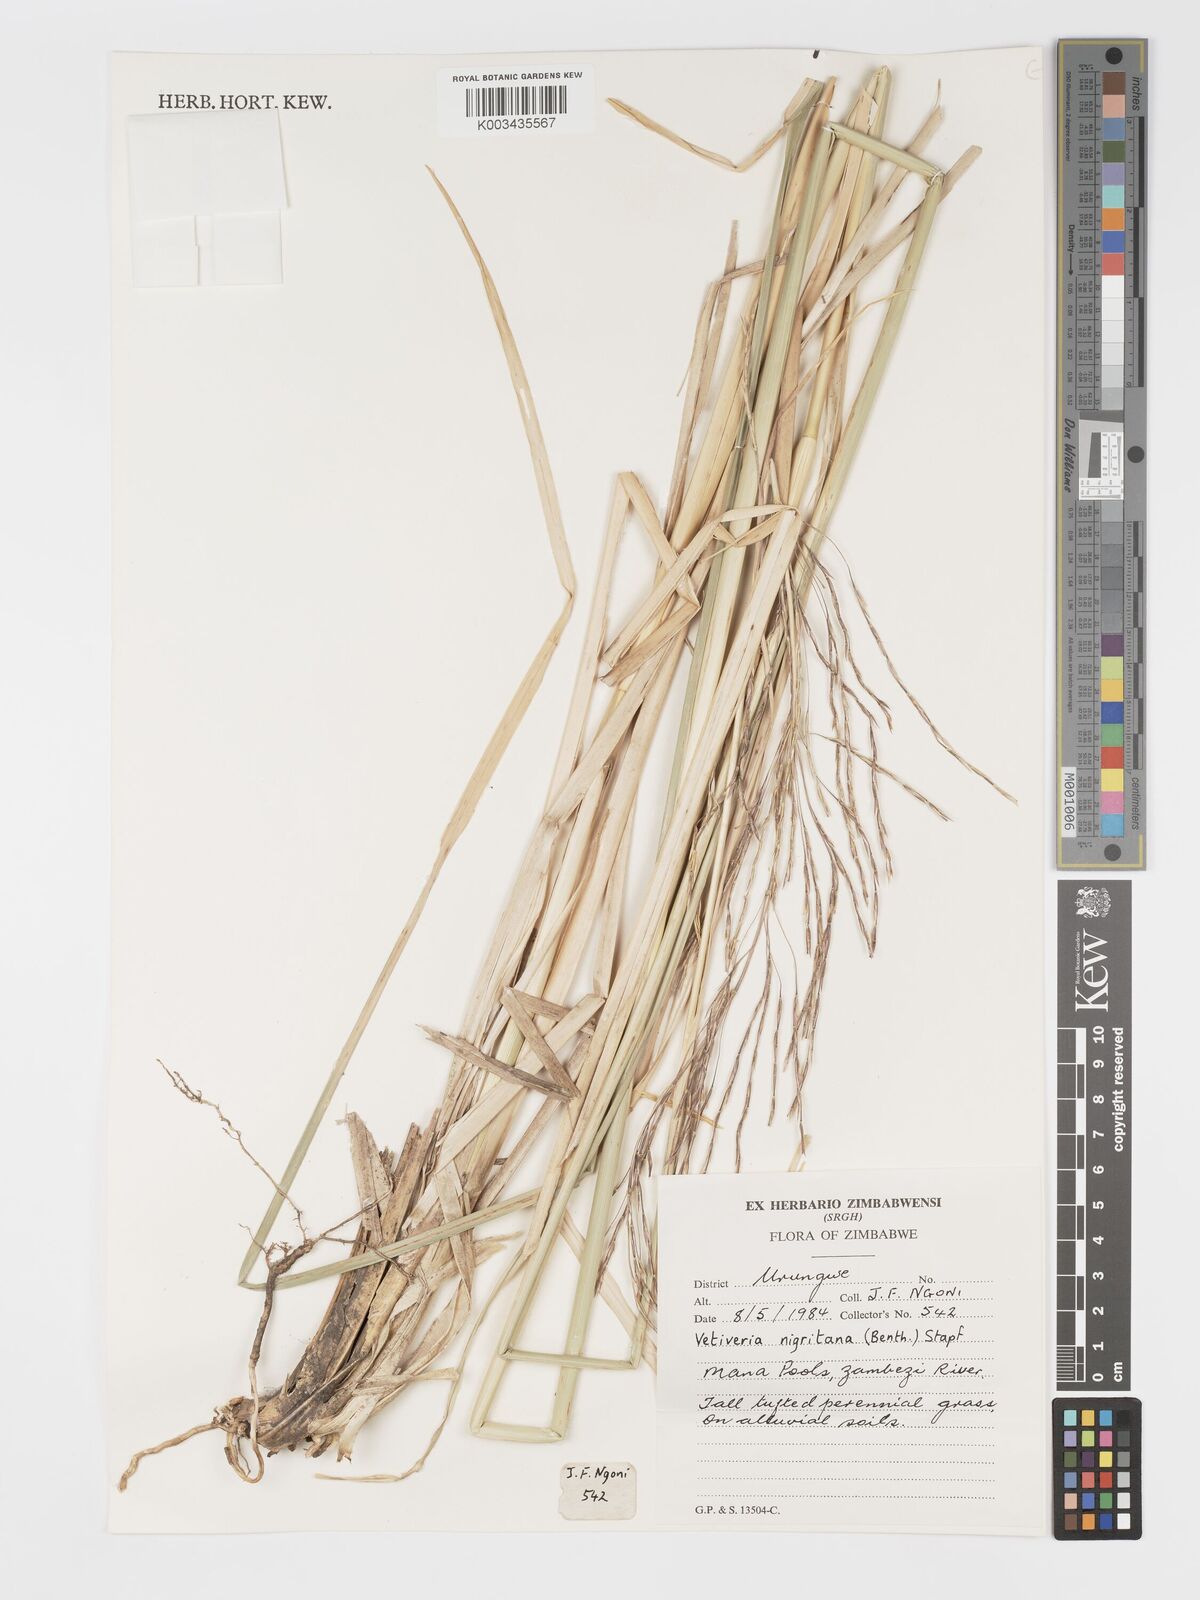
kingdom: Plantae
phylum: Tracheophyta
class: Liliopsida
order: Poales
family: Poaceae
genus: Chrysopogon
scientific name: Chrysopogon nigritanus
